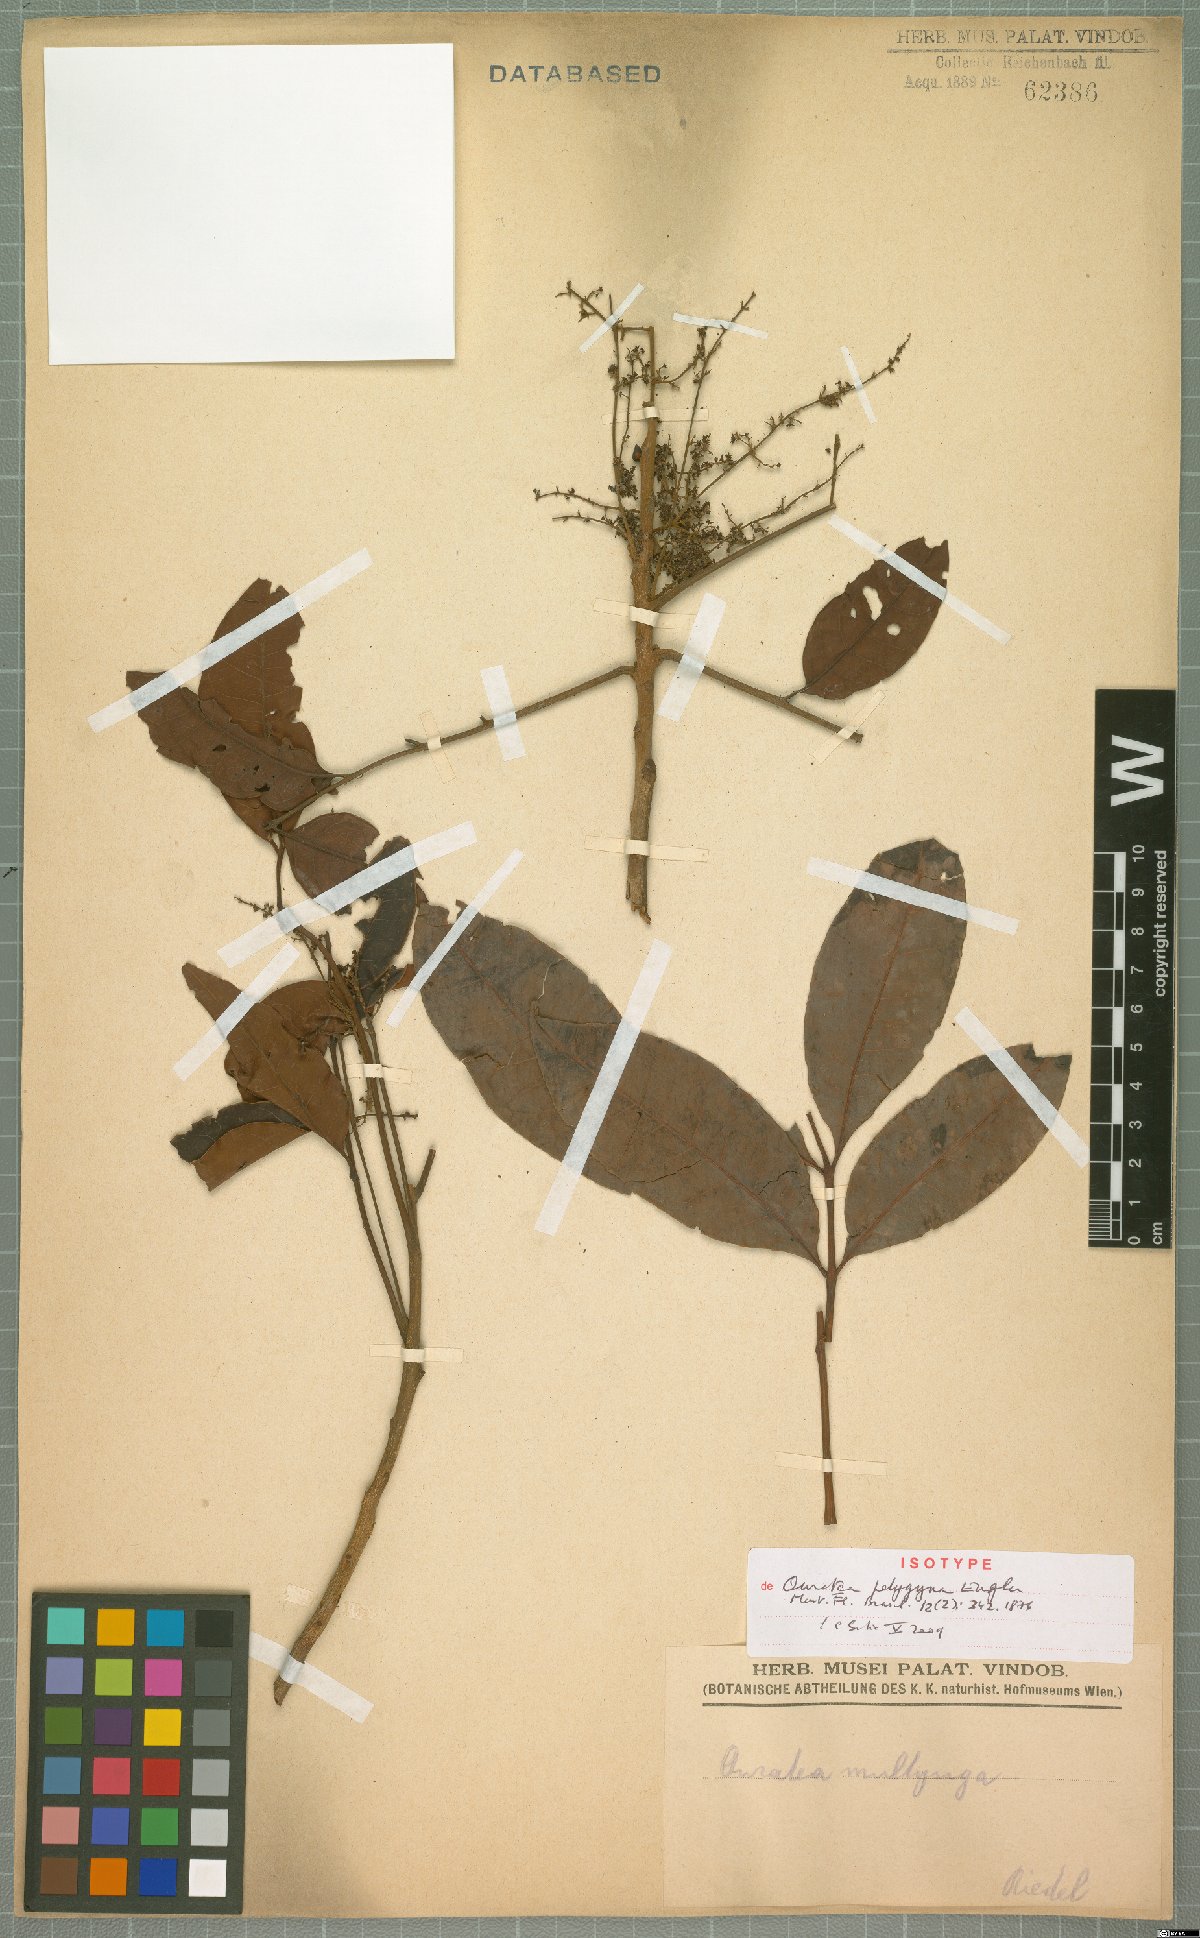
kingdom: Plantae
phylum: Tracheophyta
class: Magnoliopsida
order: Malpighiales
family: Ochnaceae
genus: Ouratea
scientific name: Ouratea polygyna
